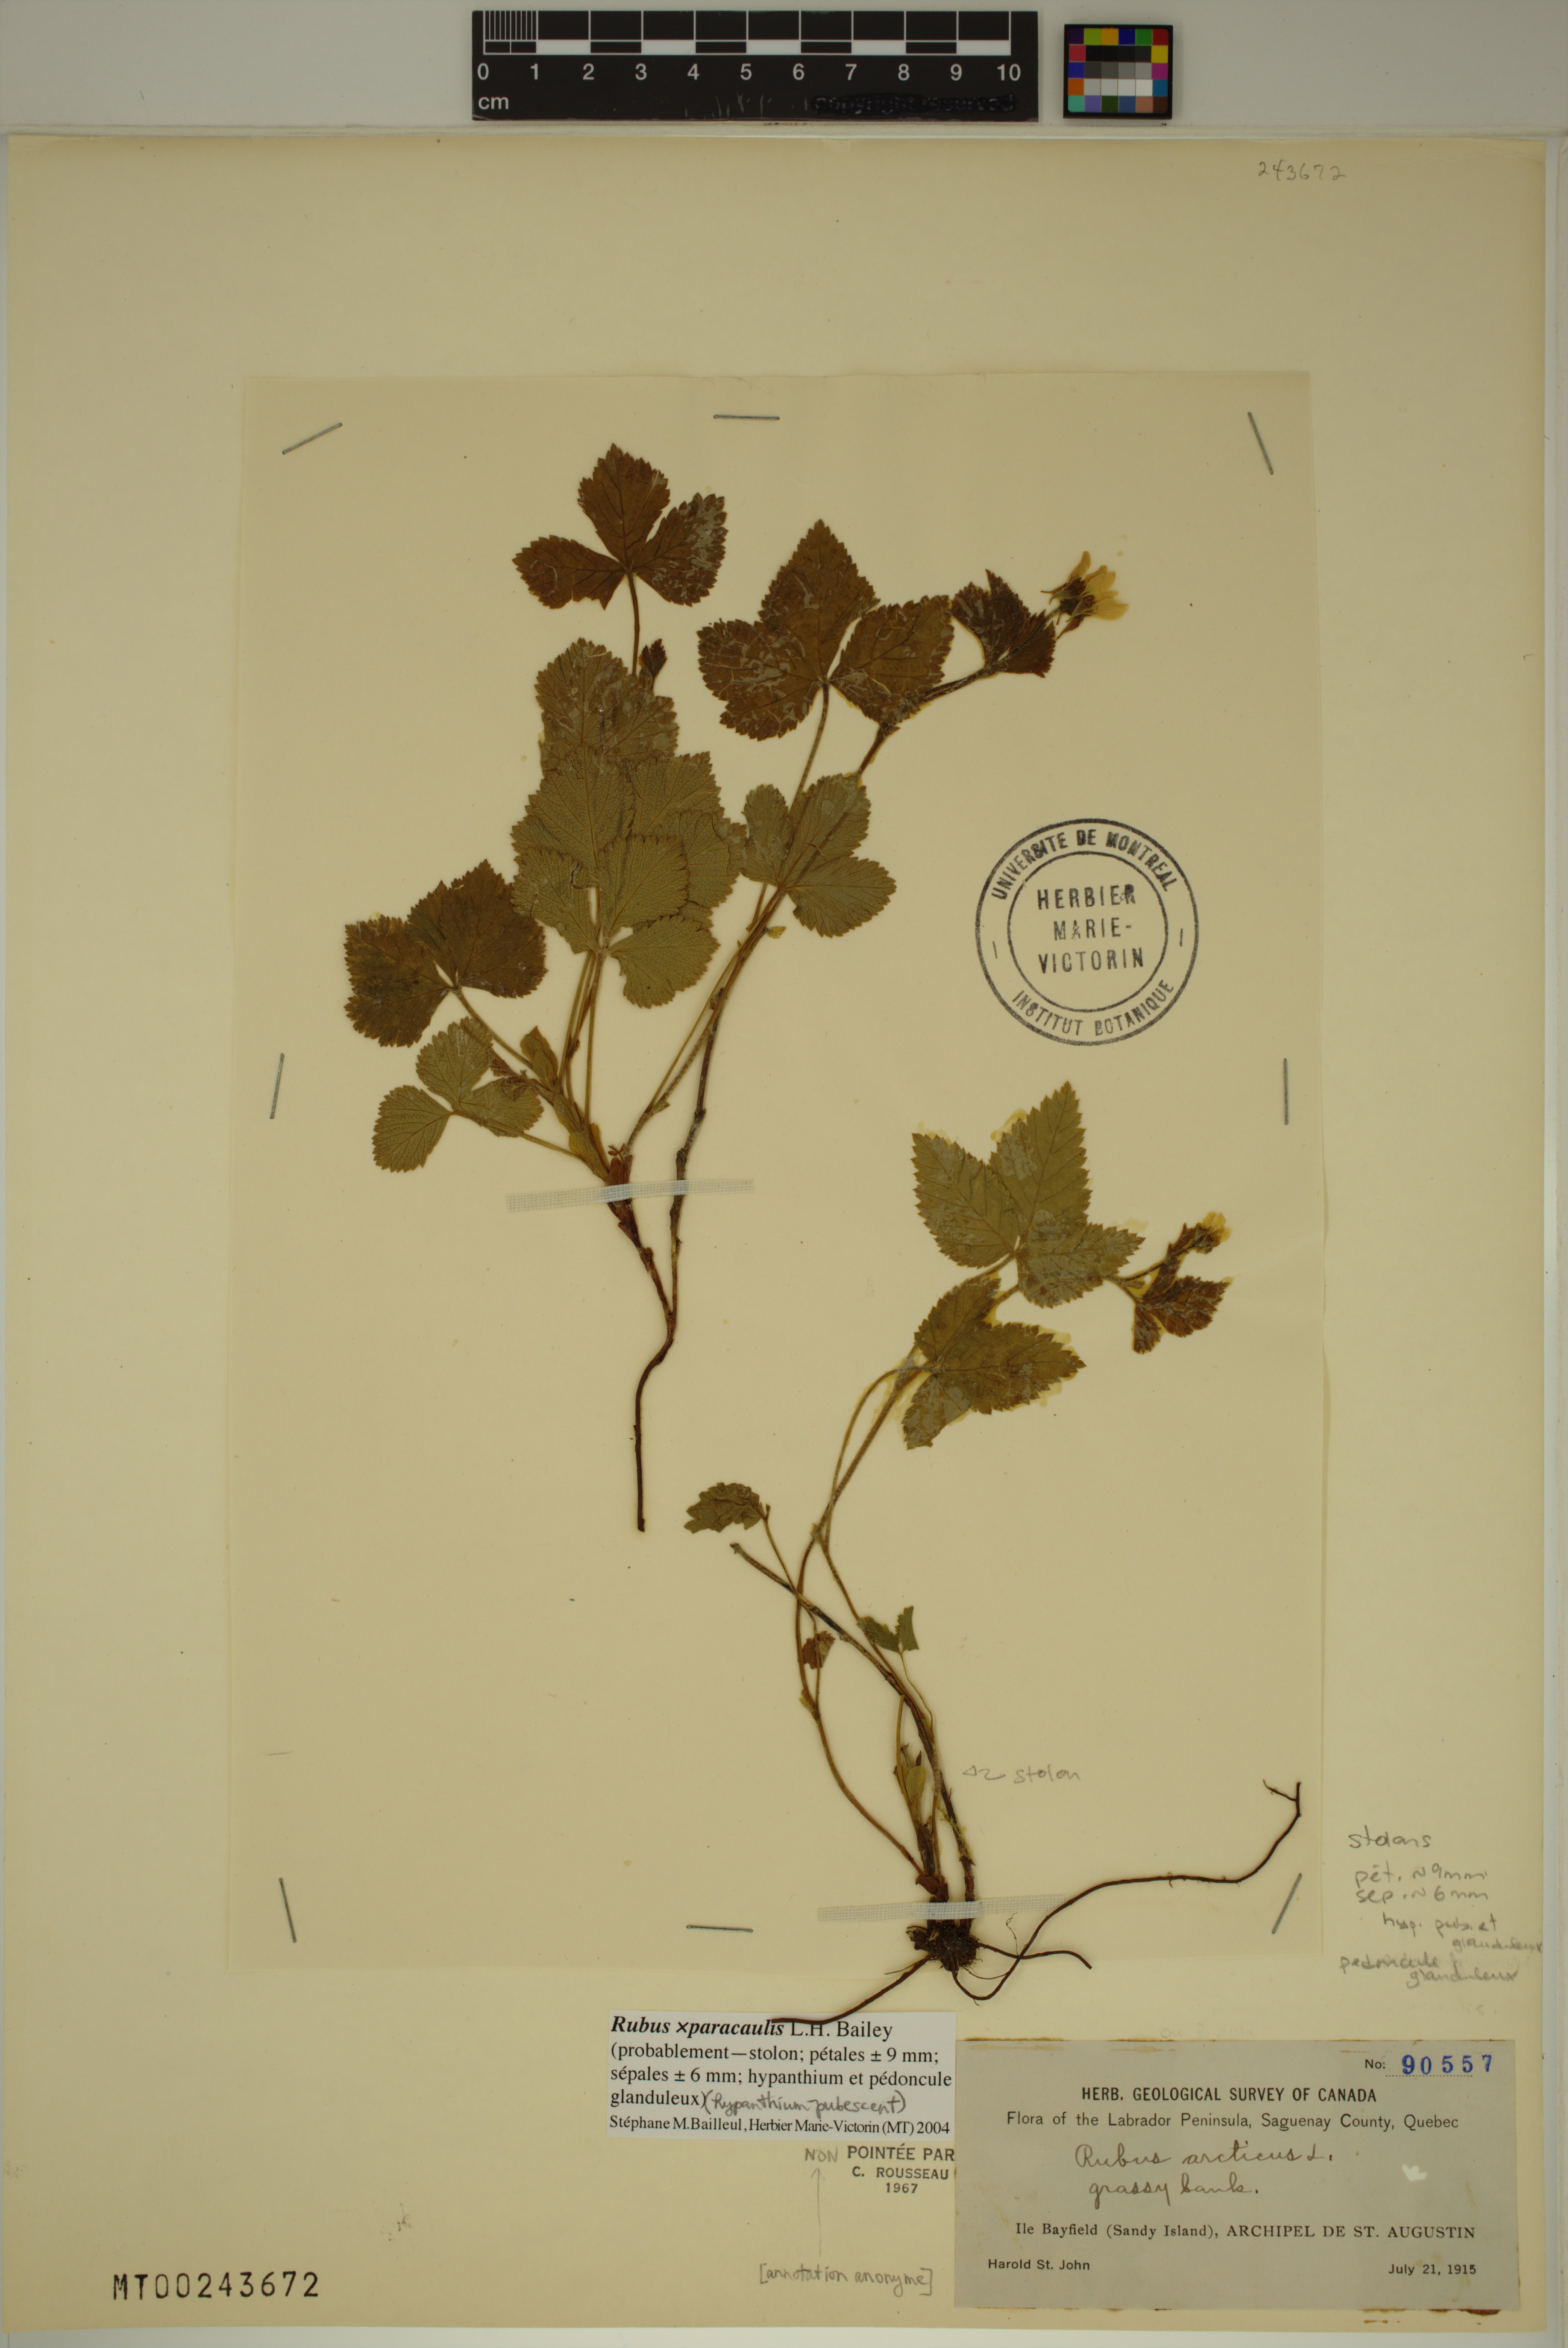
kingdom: Plantae
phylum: Tracheophyta
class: Magnoliopsida
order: Rosales
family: Rosaceae
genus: Rubus
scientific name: Rubus paracaulis
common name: Dwarf white-flowered raspberry
